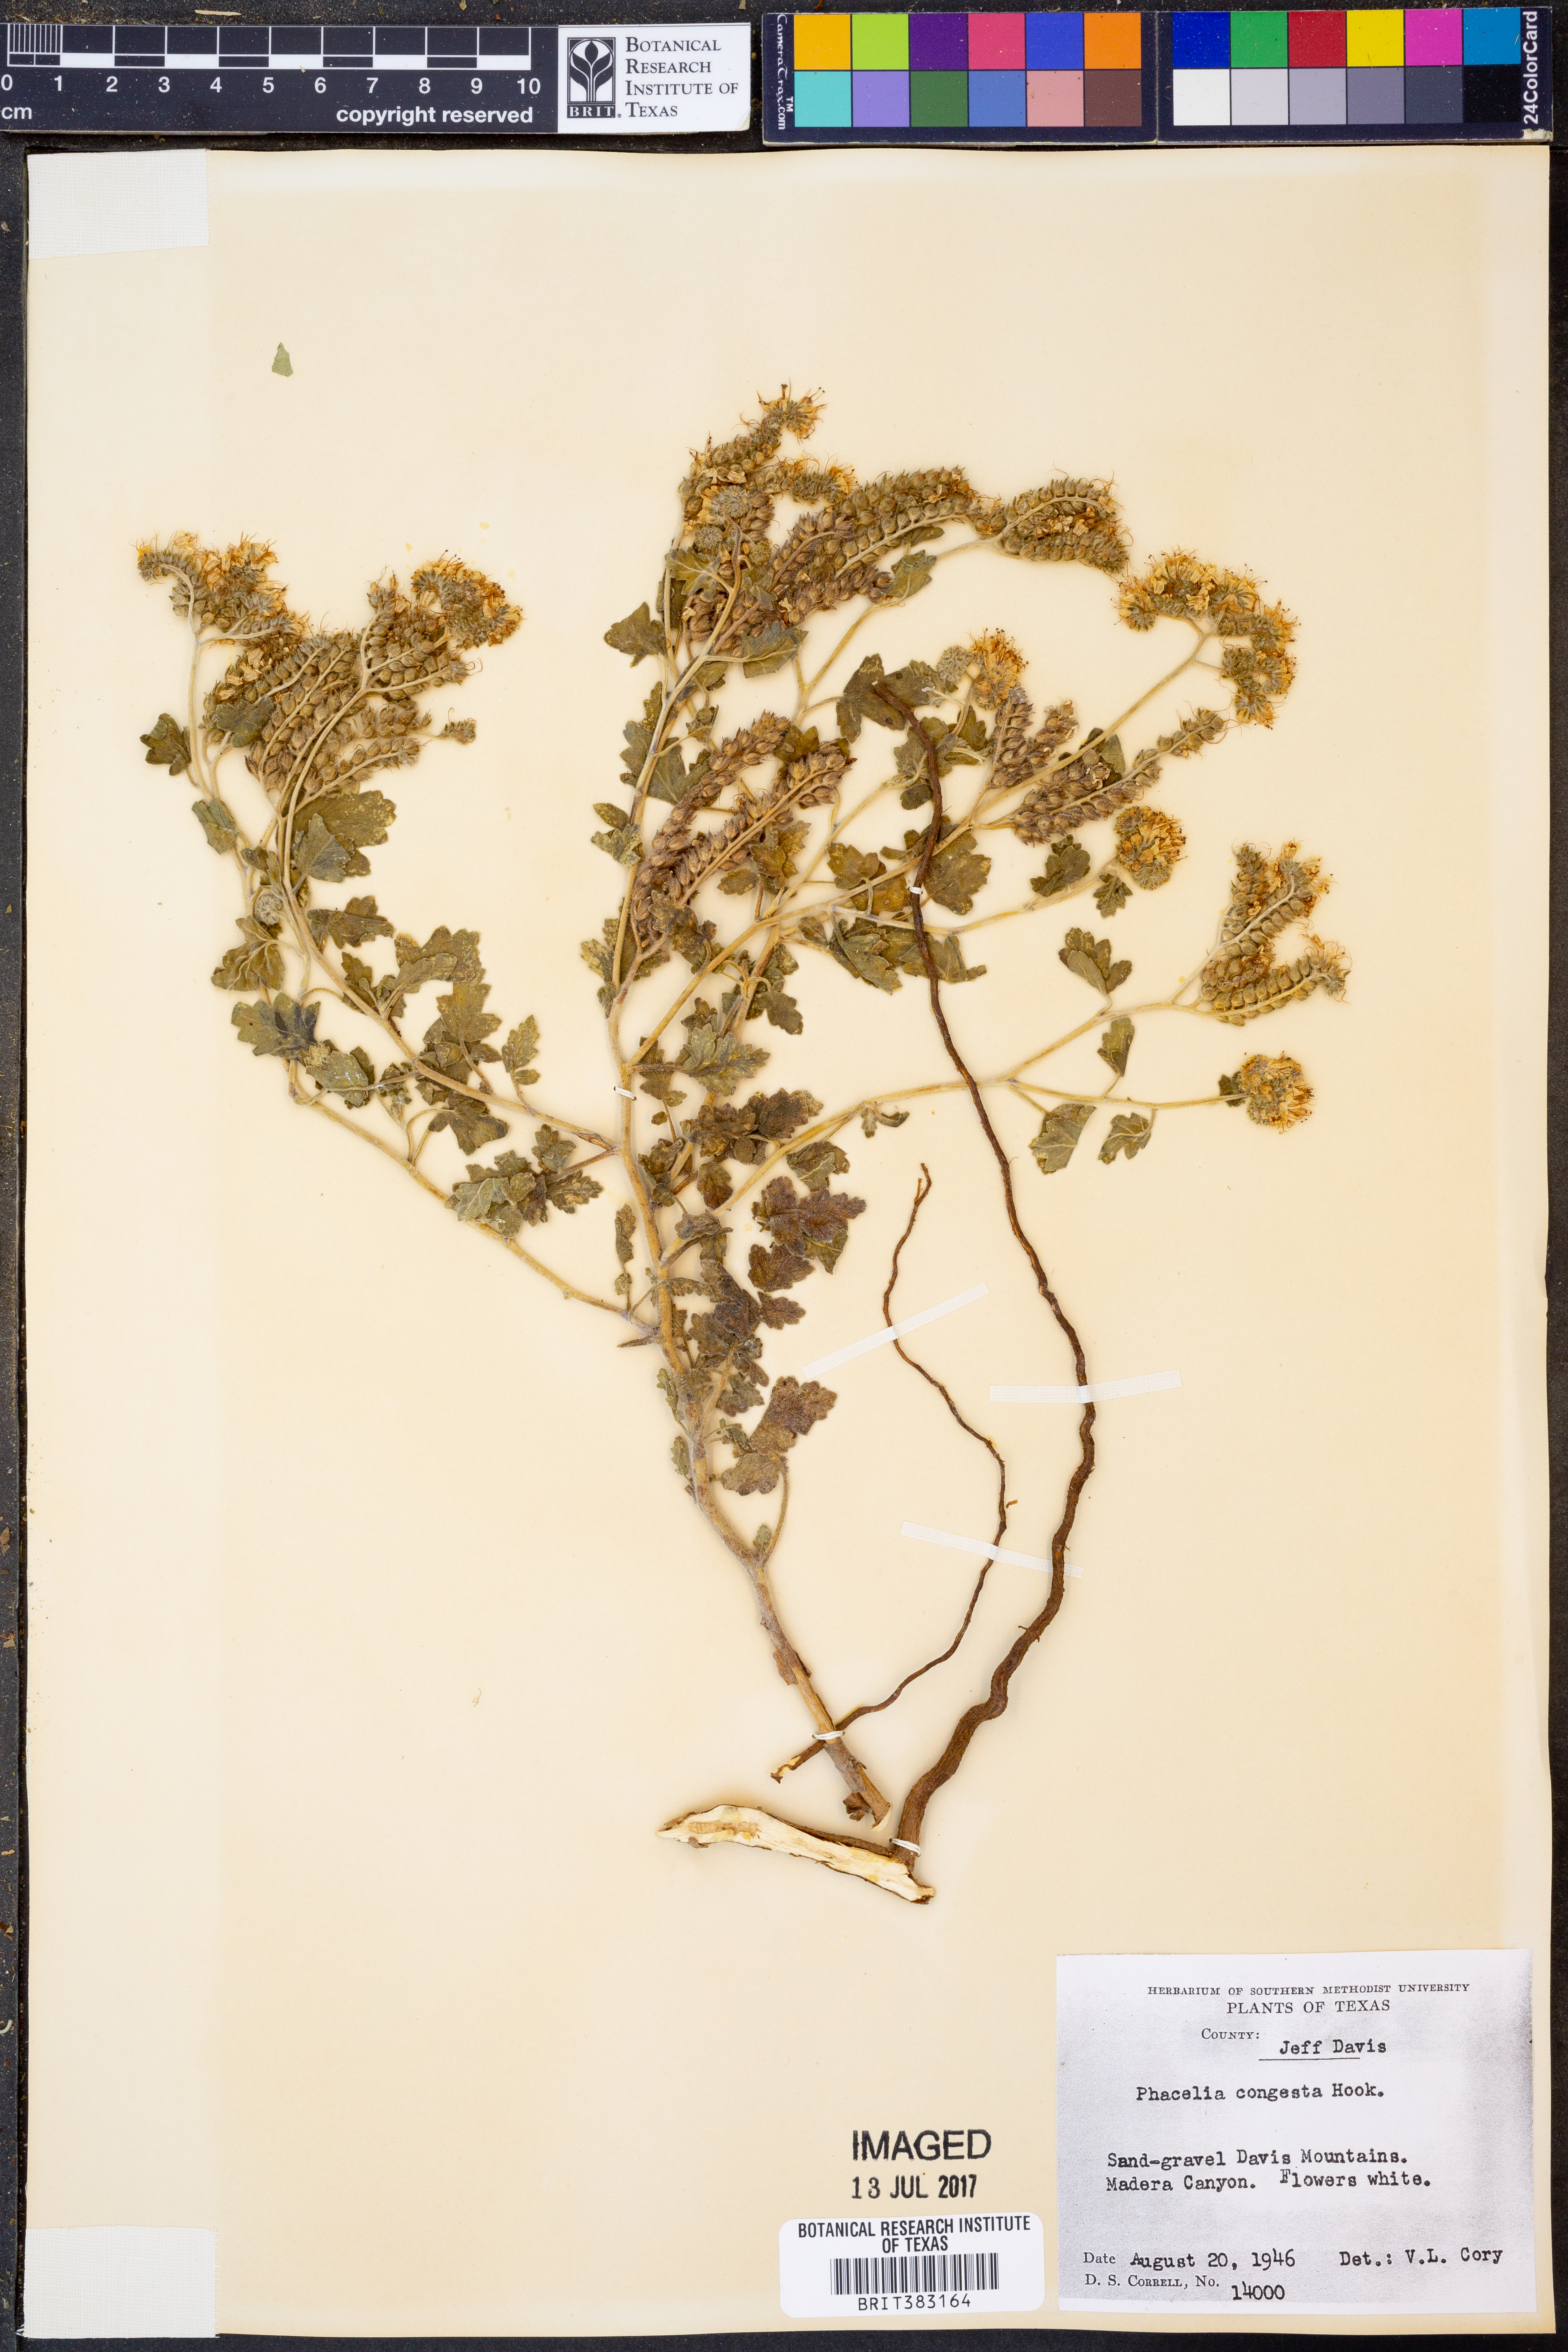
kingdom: Plantae
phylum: Tracheophyta
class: Magnoliopsida
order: Boraginales
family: Hydrophyllaceae
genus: Phacelia
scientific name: Phacelia congesta
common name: Blue curls
